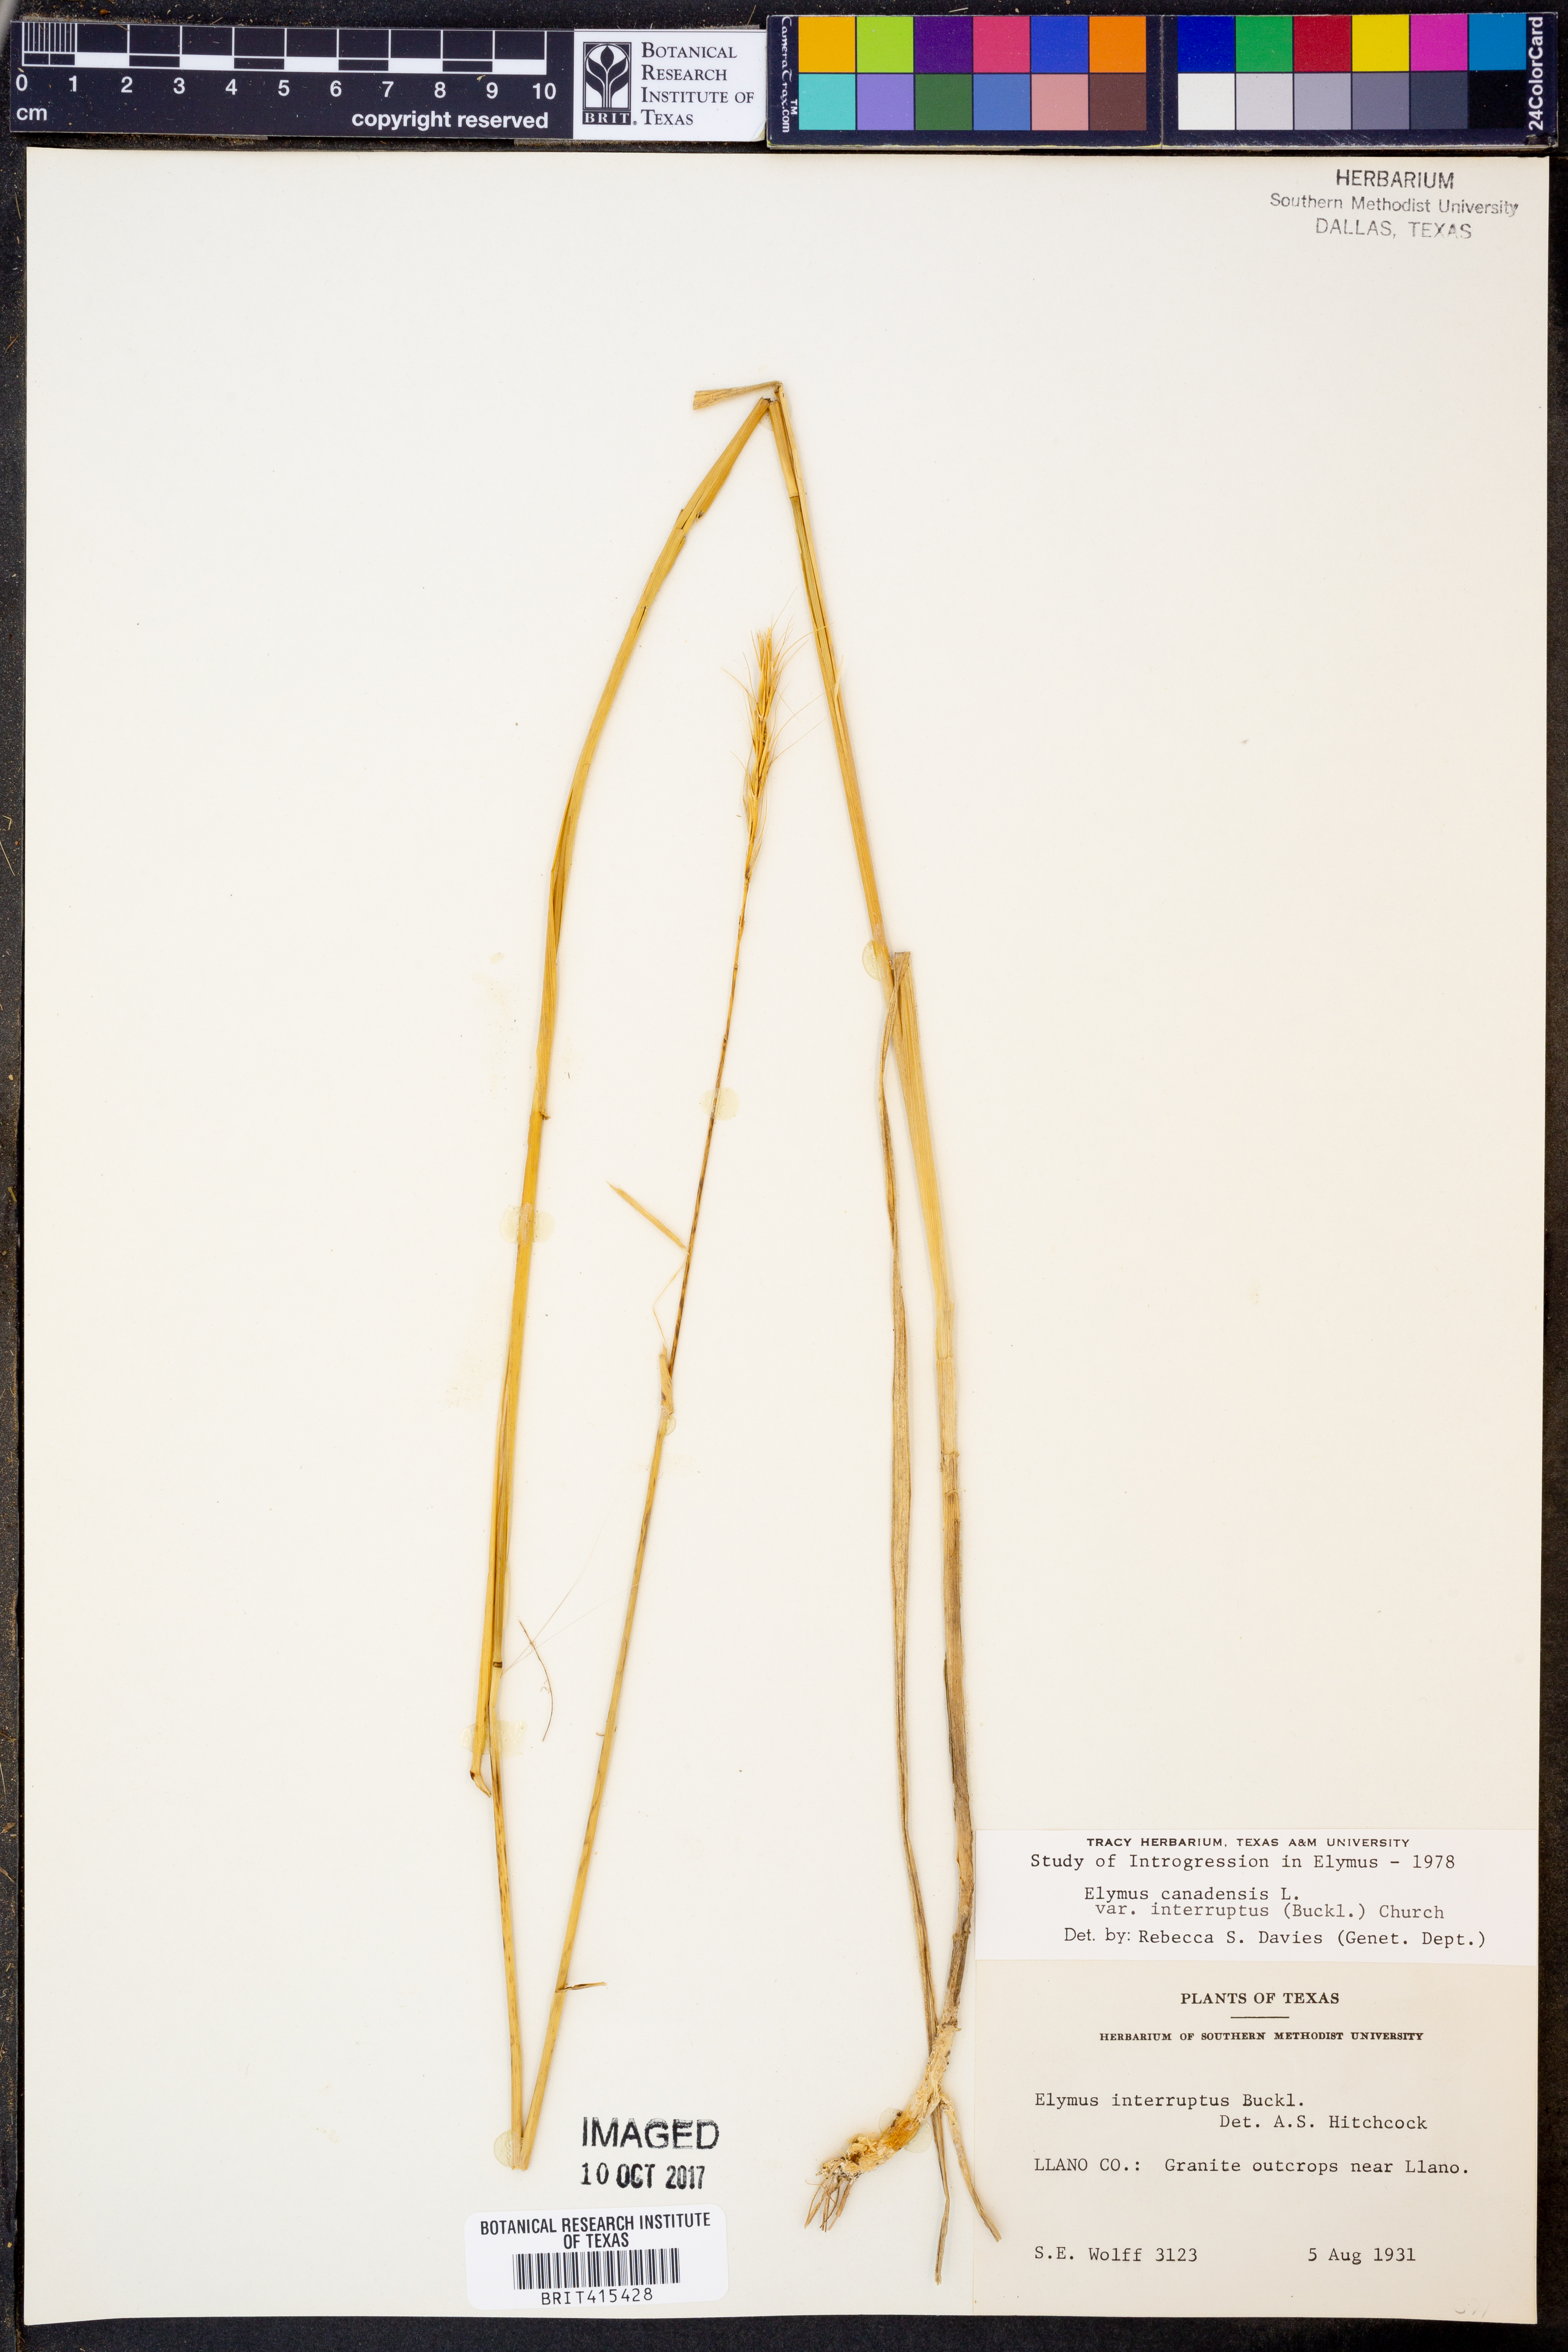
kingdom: Plantae
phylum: Tracheophyta
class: Liliopsida
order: Poales
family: Poaceae
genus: Elymus
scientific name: Elymus interruptus
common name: Southwestern wild rye
